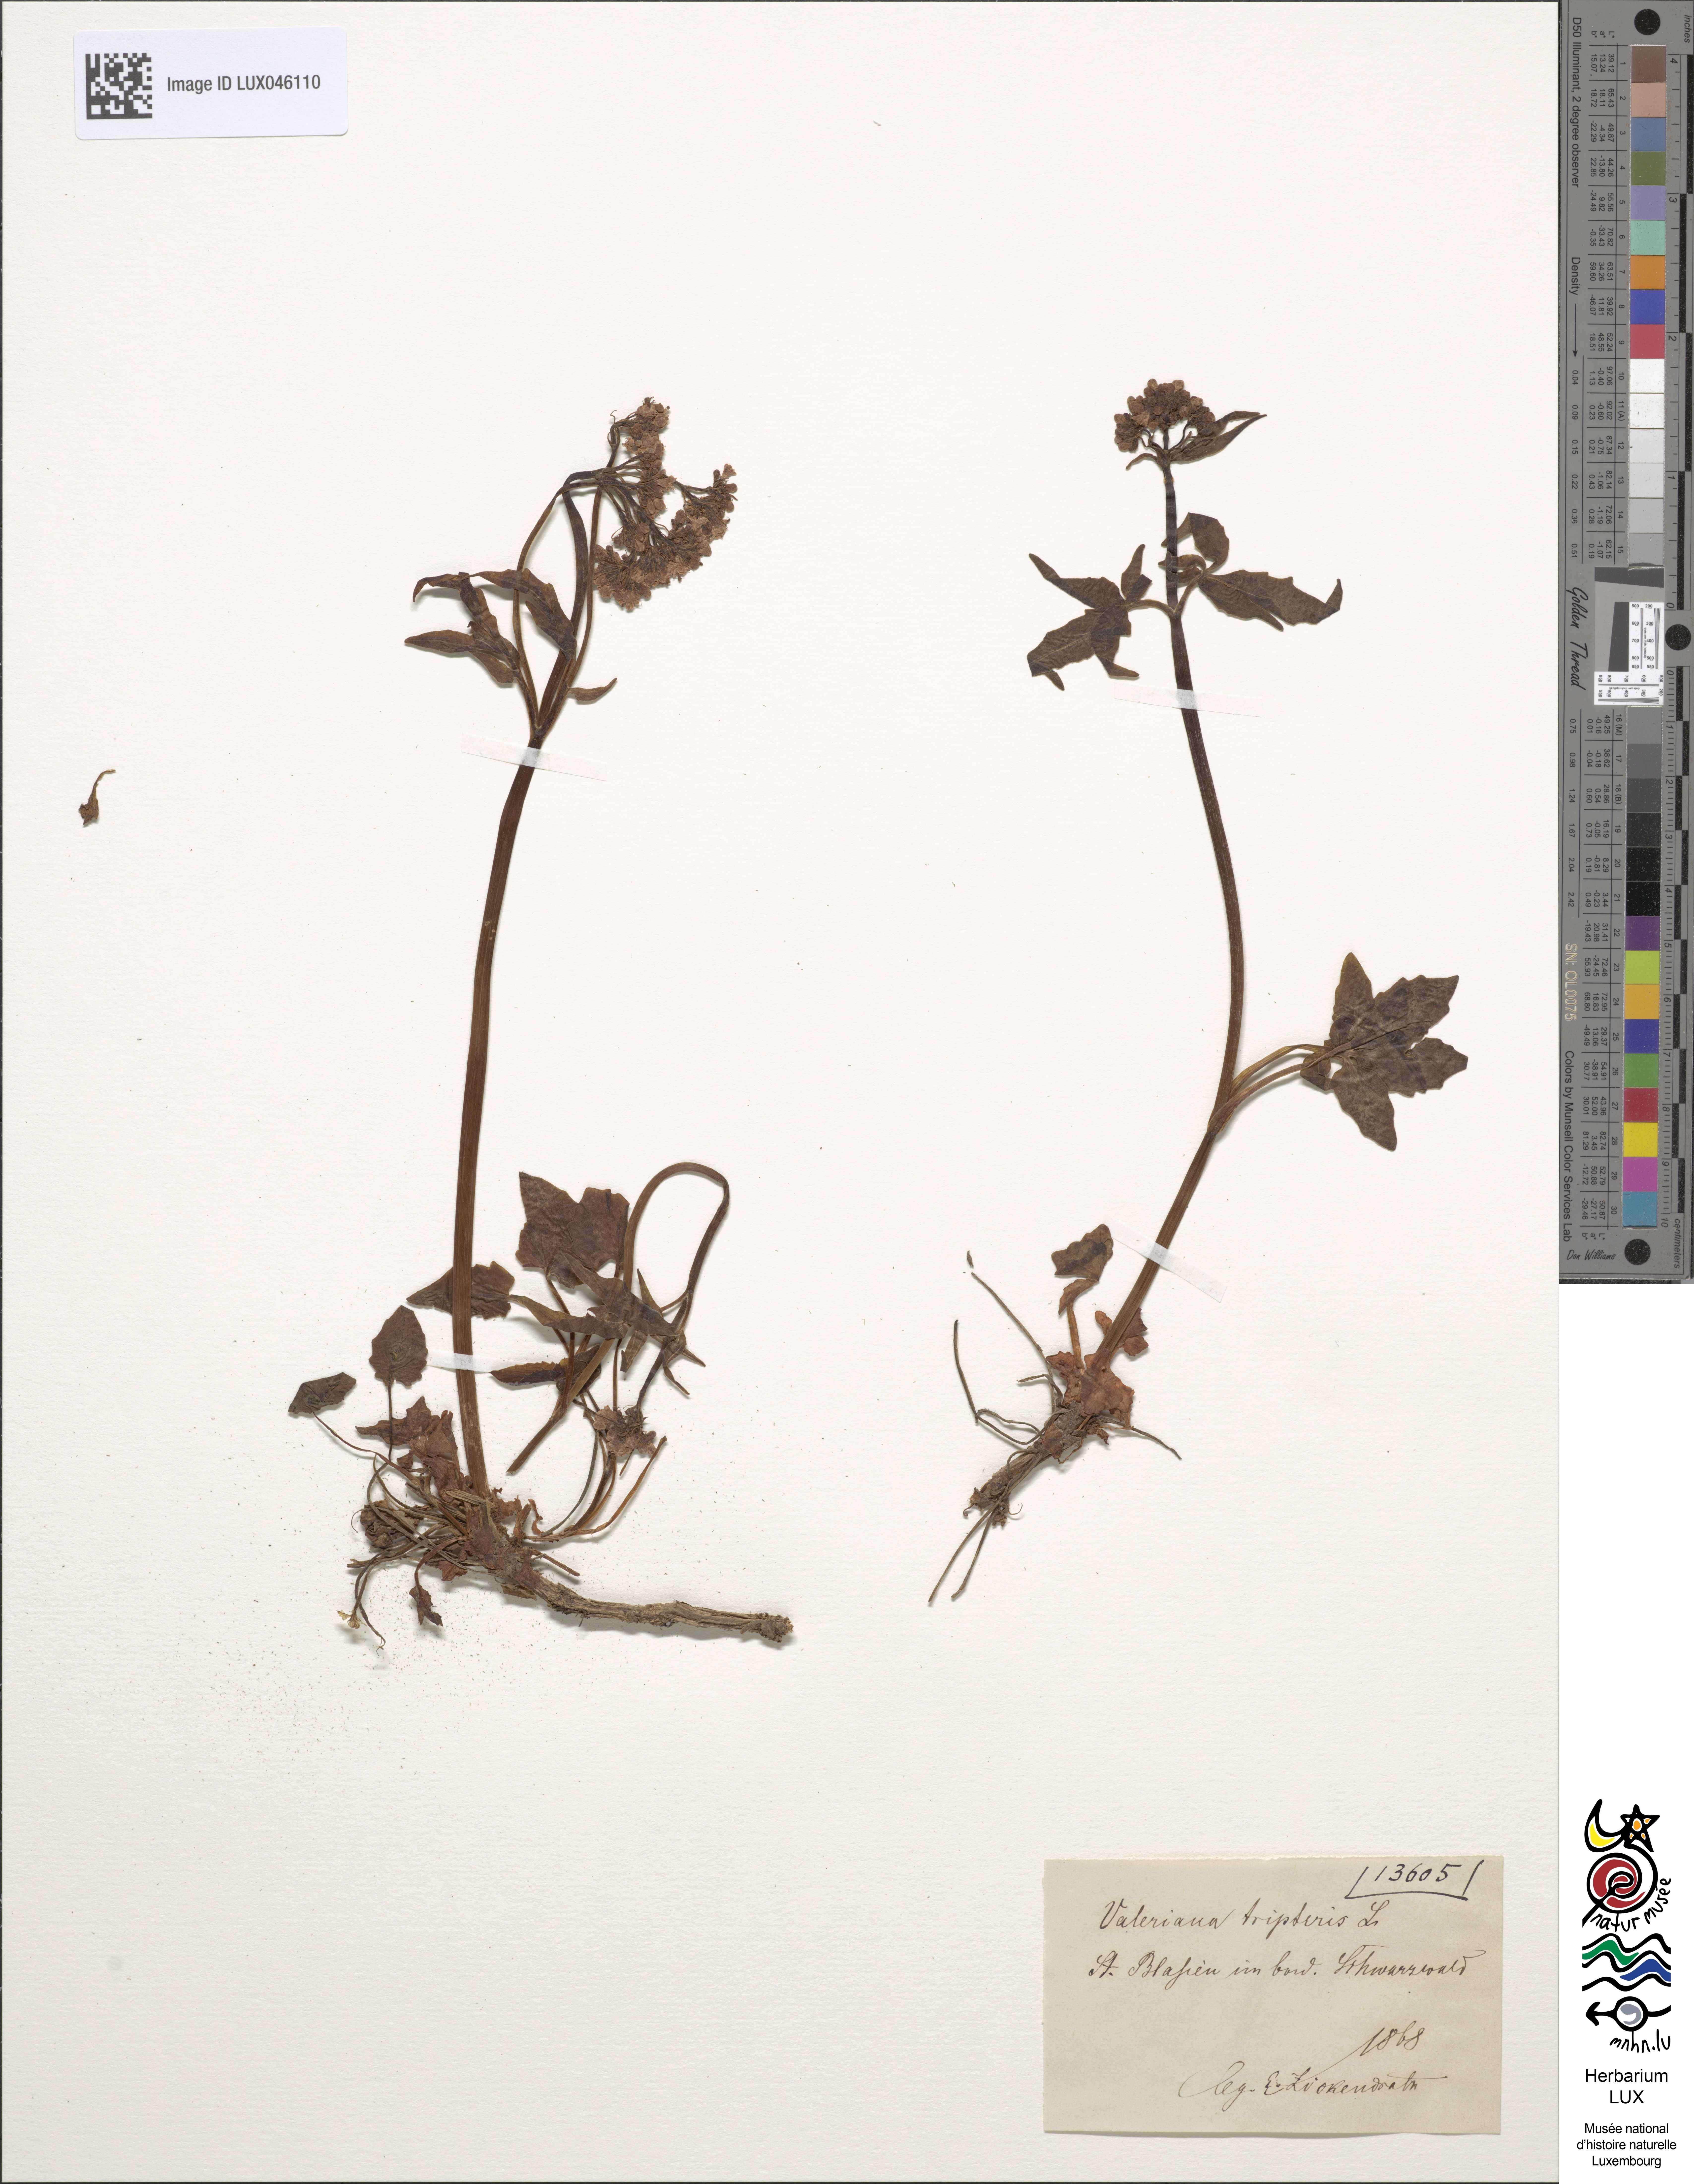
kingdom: Plantae
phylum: Tracheophyta
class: Magnoliopsida
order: Dipsacales
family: Caprifoliaceae
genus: Valeriana
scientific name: Valeriana tripteris
